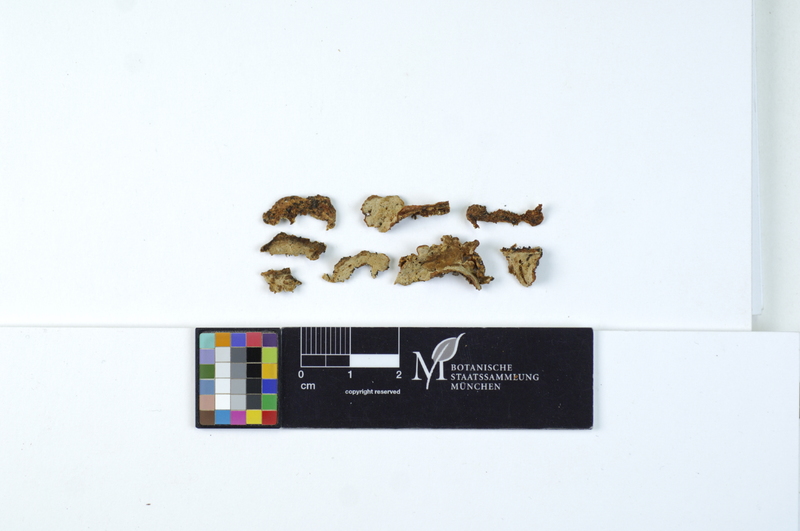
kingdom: Plantae
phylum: Tracheophyta
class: Magnoliopsida
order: Fagales
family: Fagaceae
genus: Quercus
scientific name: Quercus
